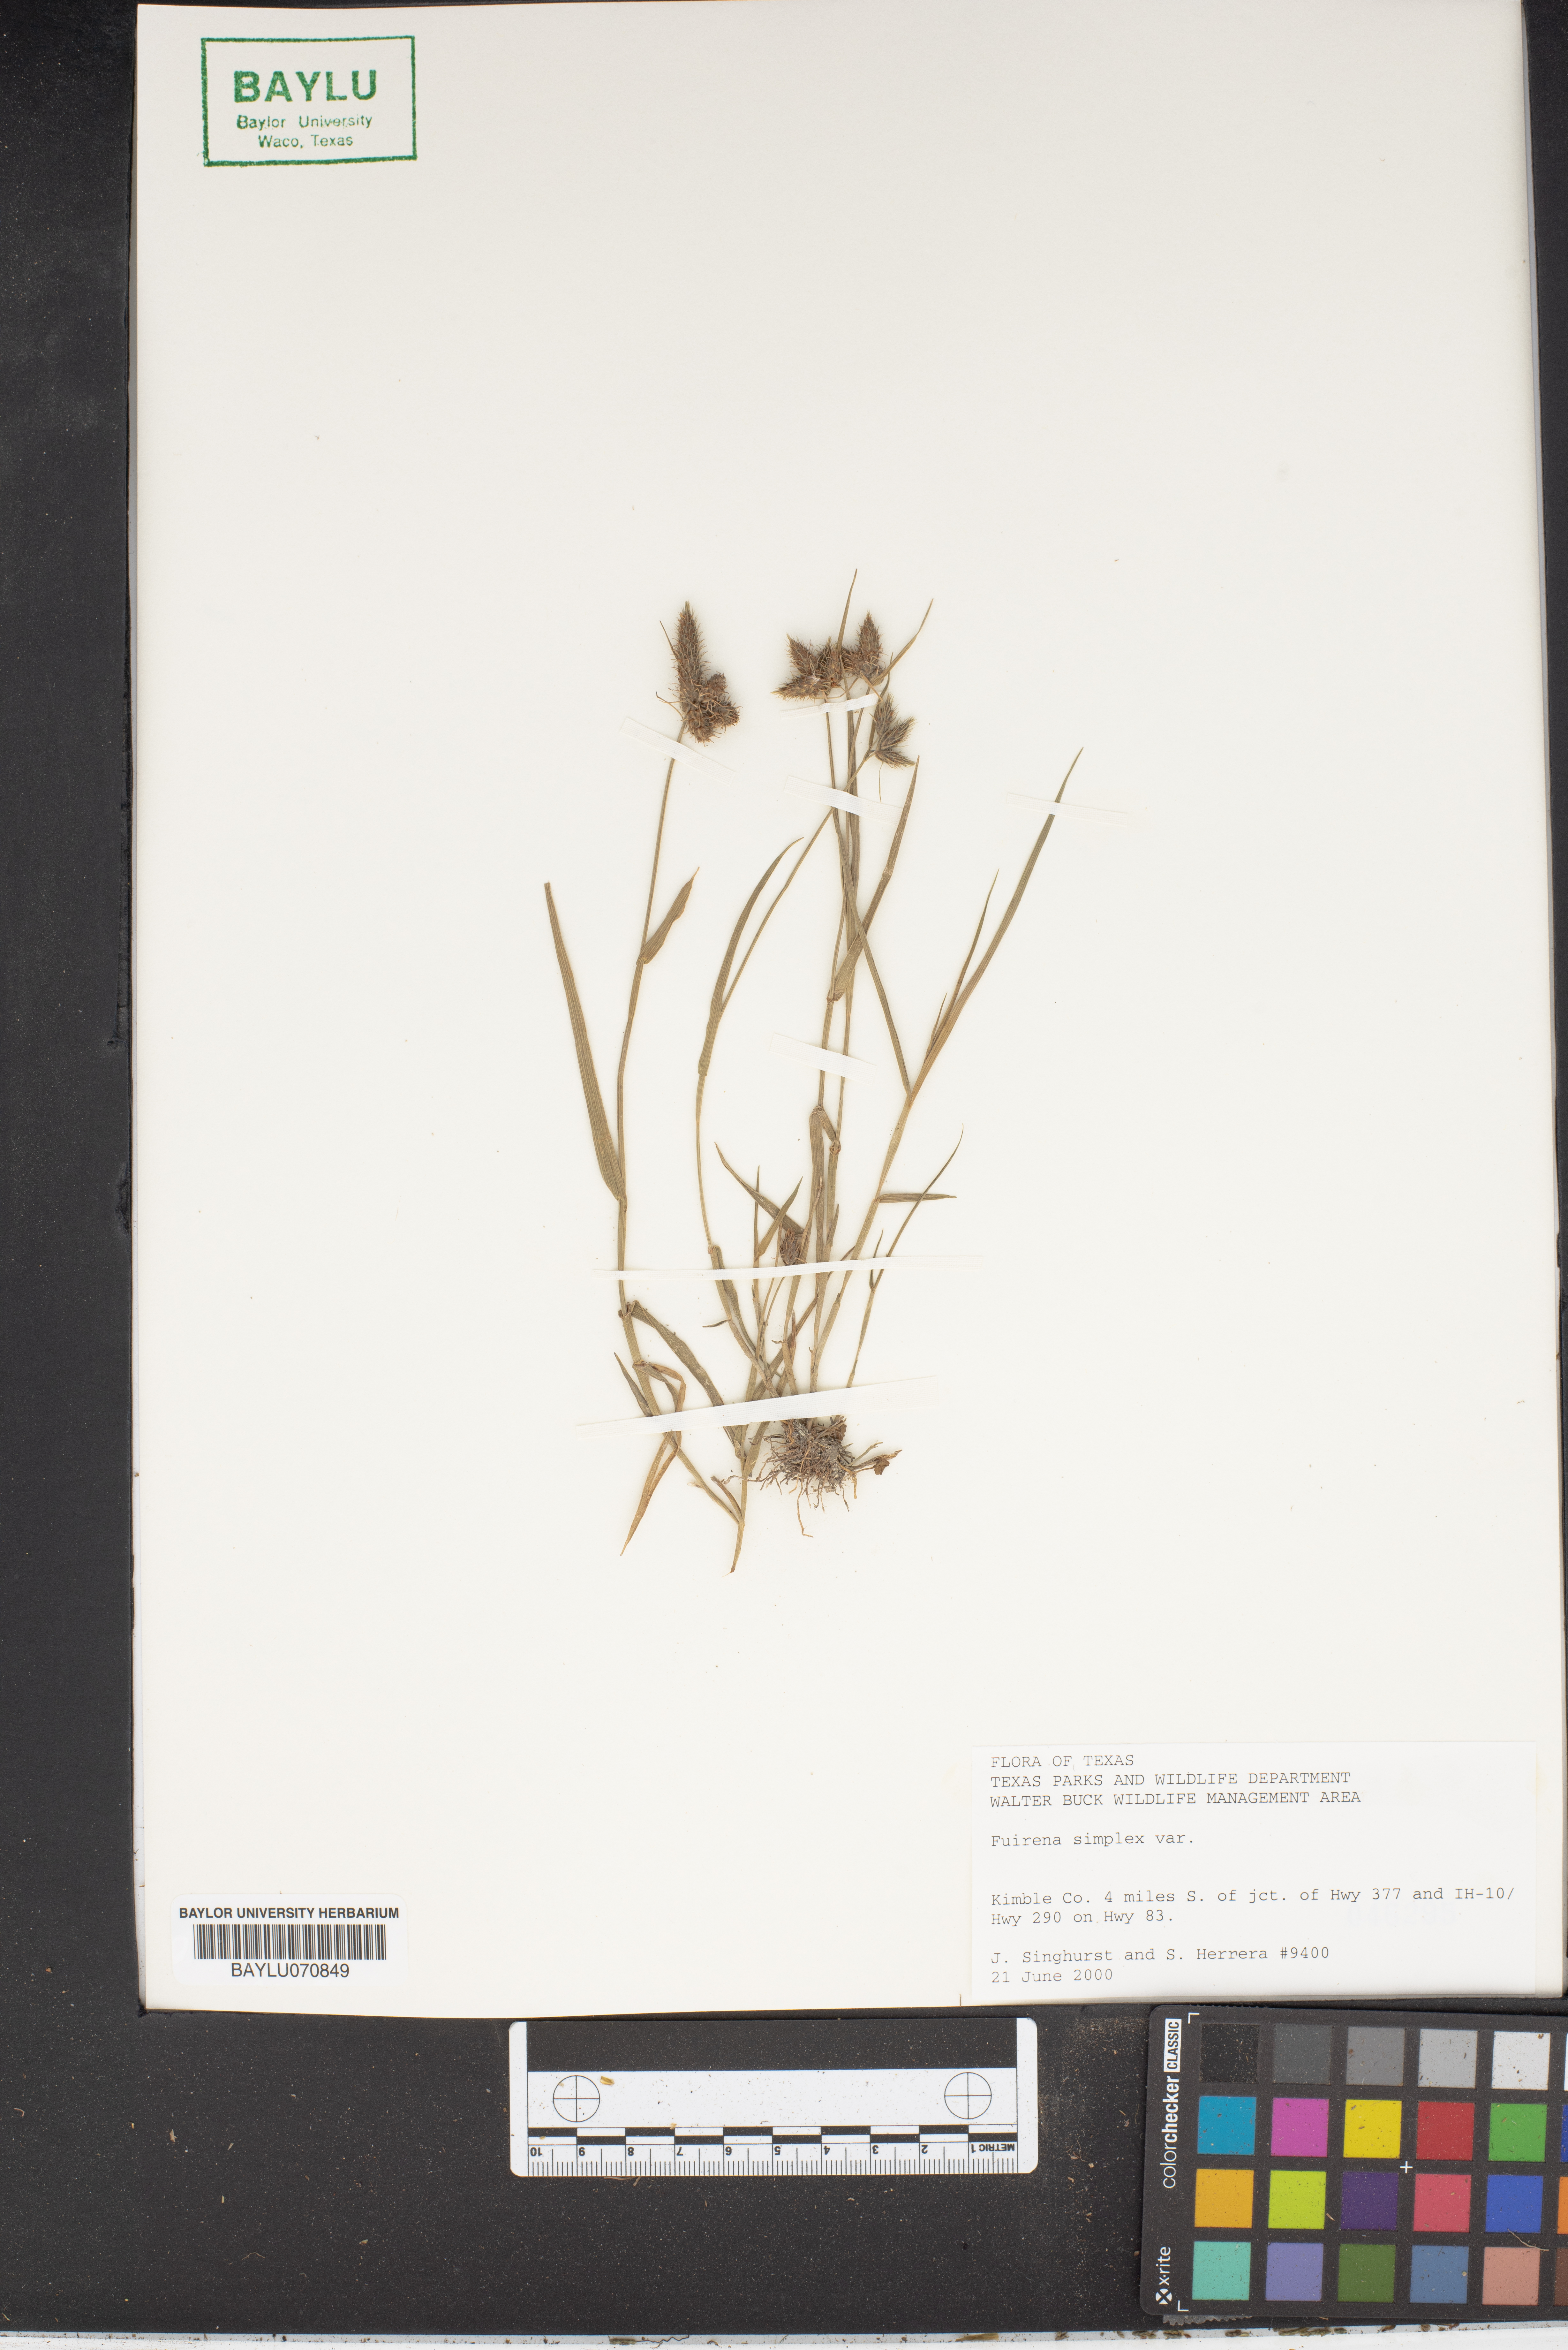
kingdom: Plantae
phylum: Tracheophyta
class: Liliopsida
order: Poales
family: Cyperaceae
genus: Fuirena
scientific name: Fuirena simplex
